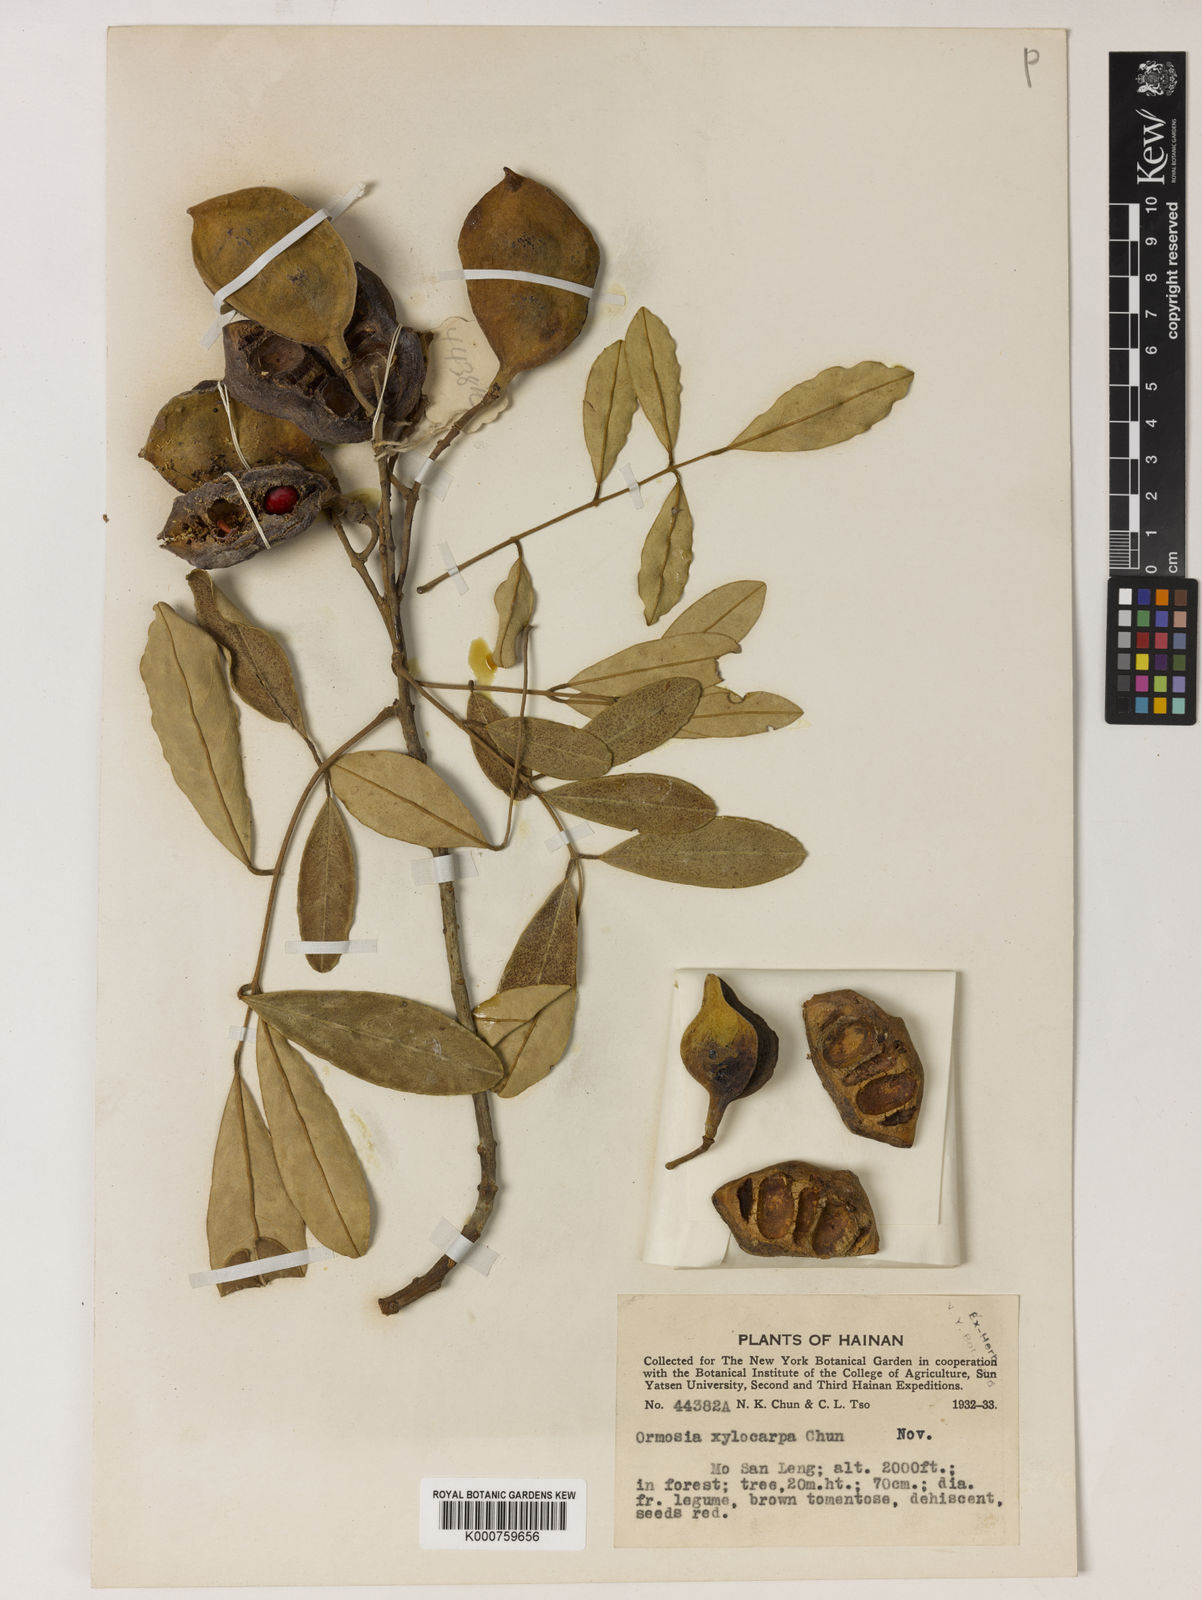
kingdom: Plantae
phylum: Tracheophyta
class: Magnoliopsida
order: Fabales
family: Fabaceae
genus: Ormosia
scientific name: Ormosia
